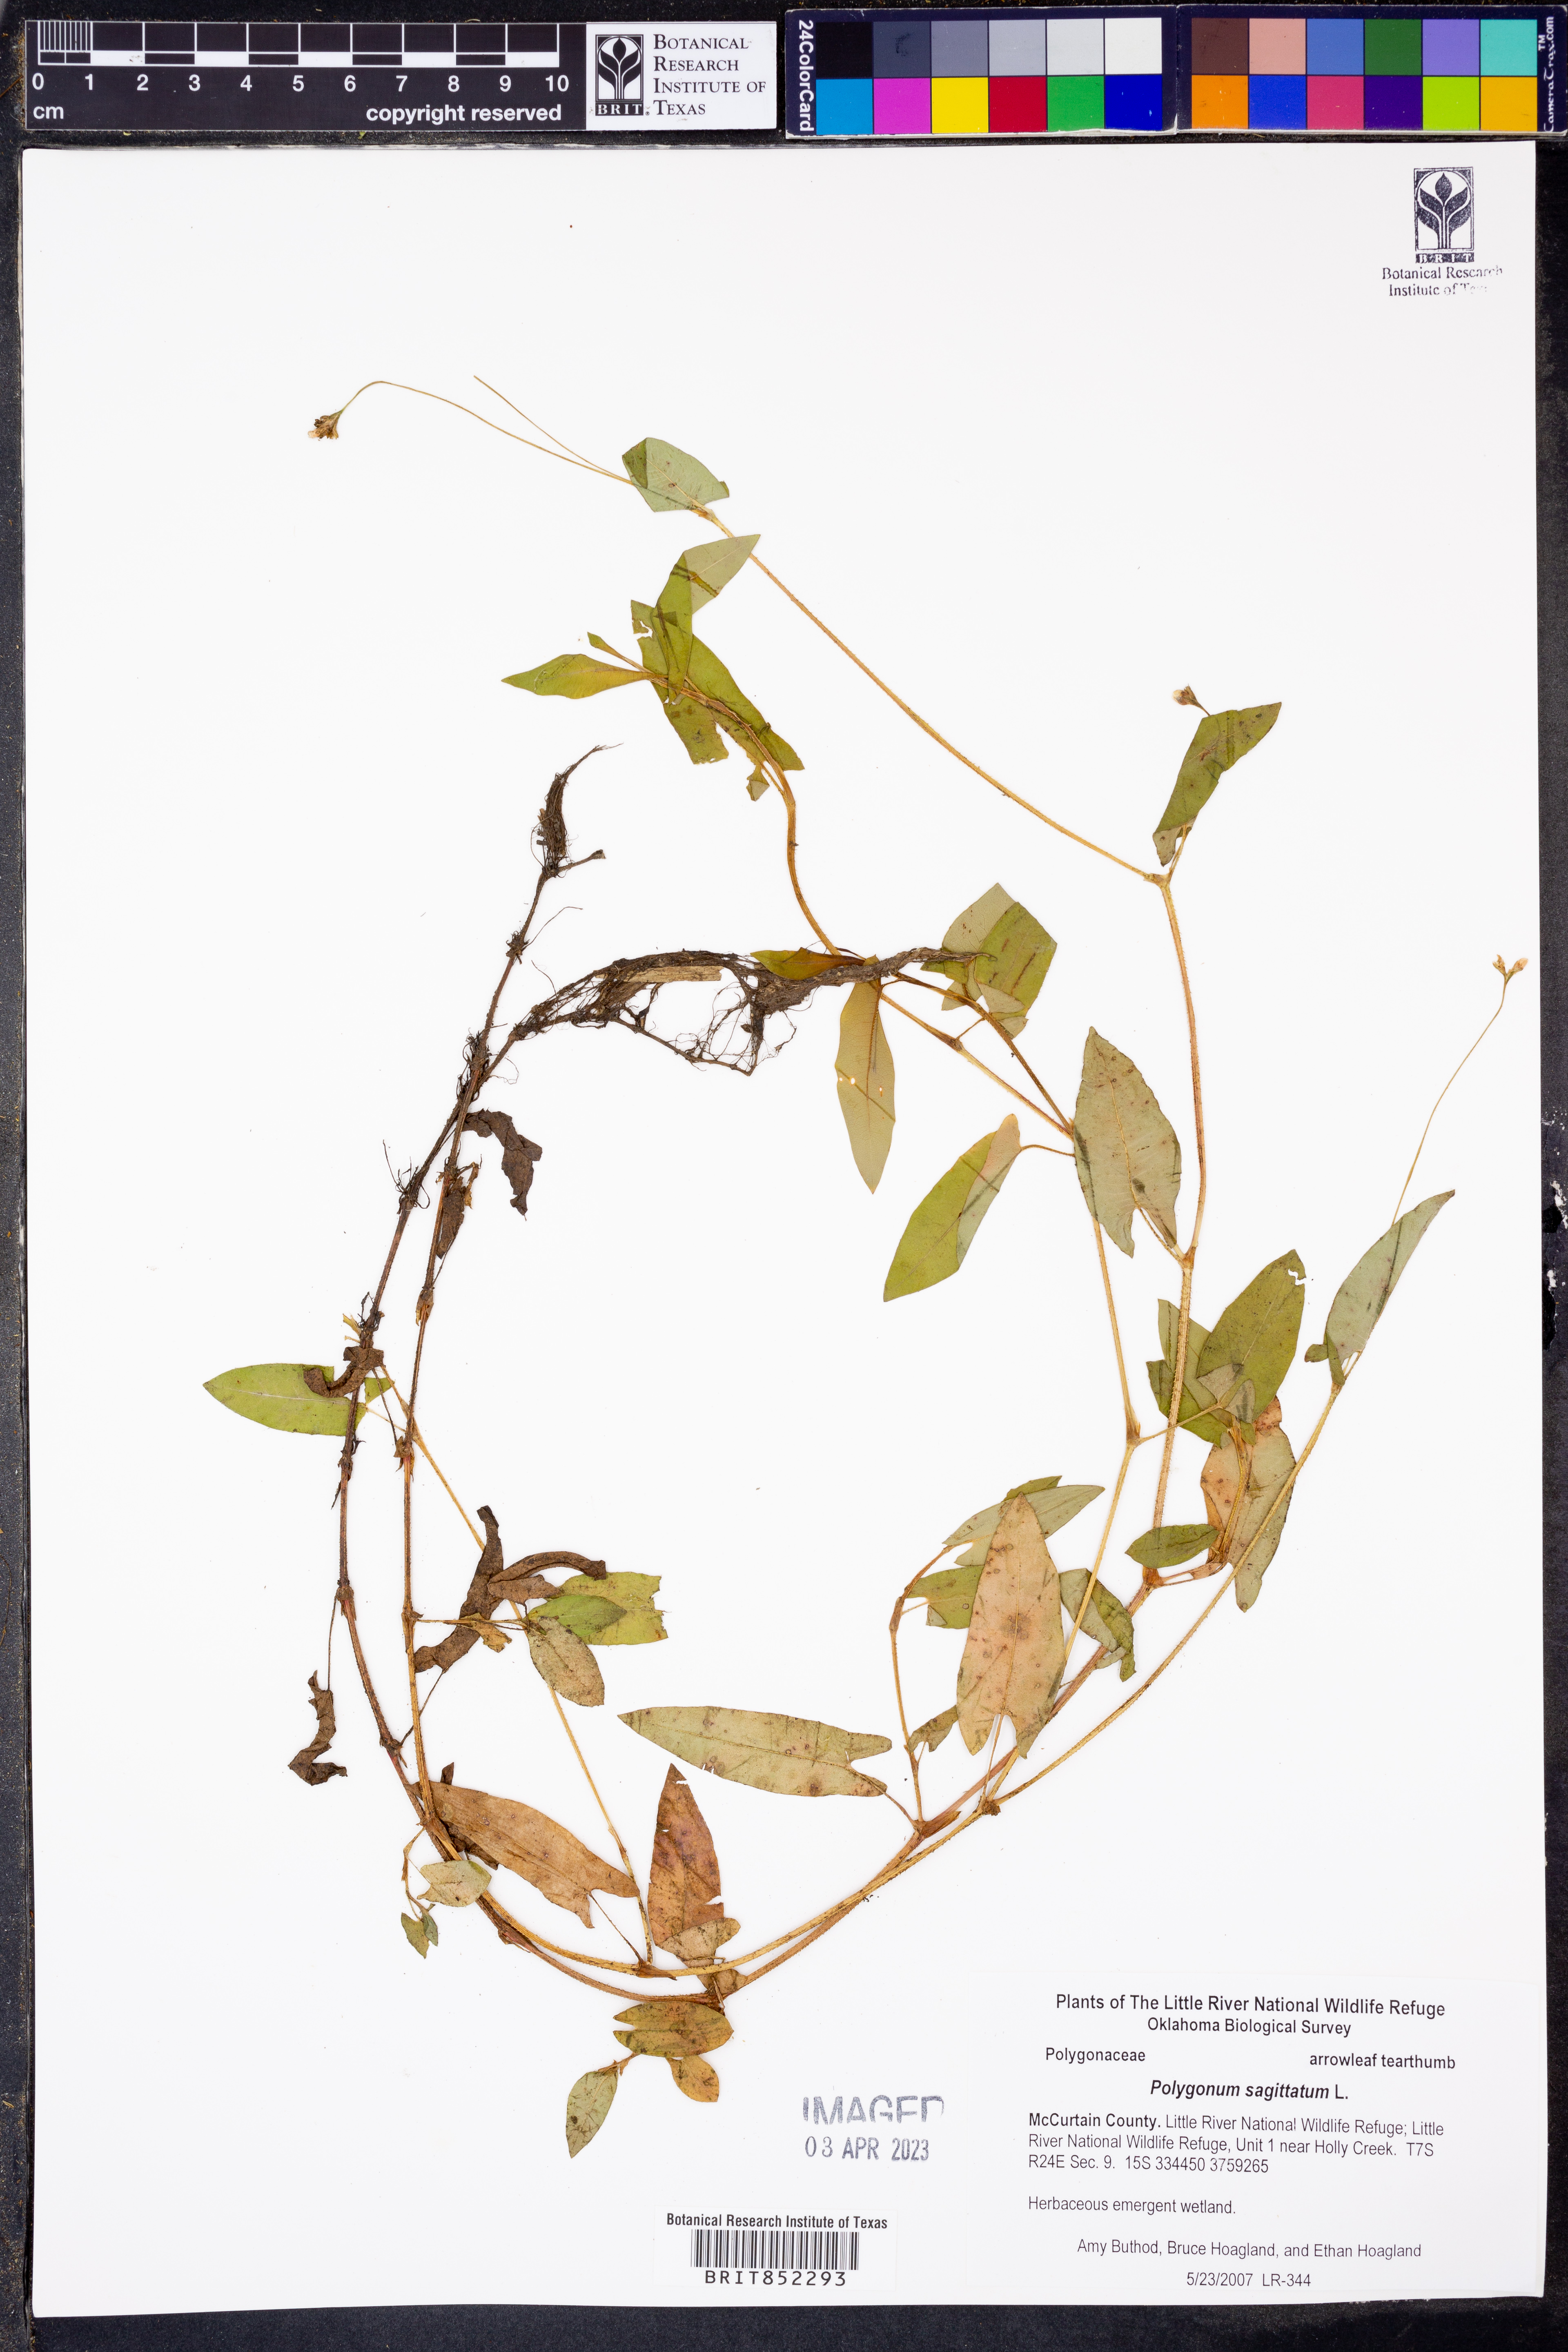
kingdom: Plantae
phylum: Tracheophyta
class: Magnoliopsida
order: Caryophyllales
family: Polygonaceae
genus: Persicaria
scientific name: Persicaria sagittata
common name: American tearthumb
